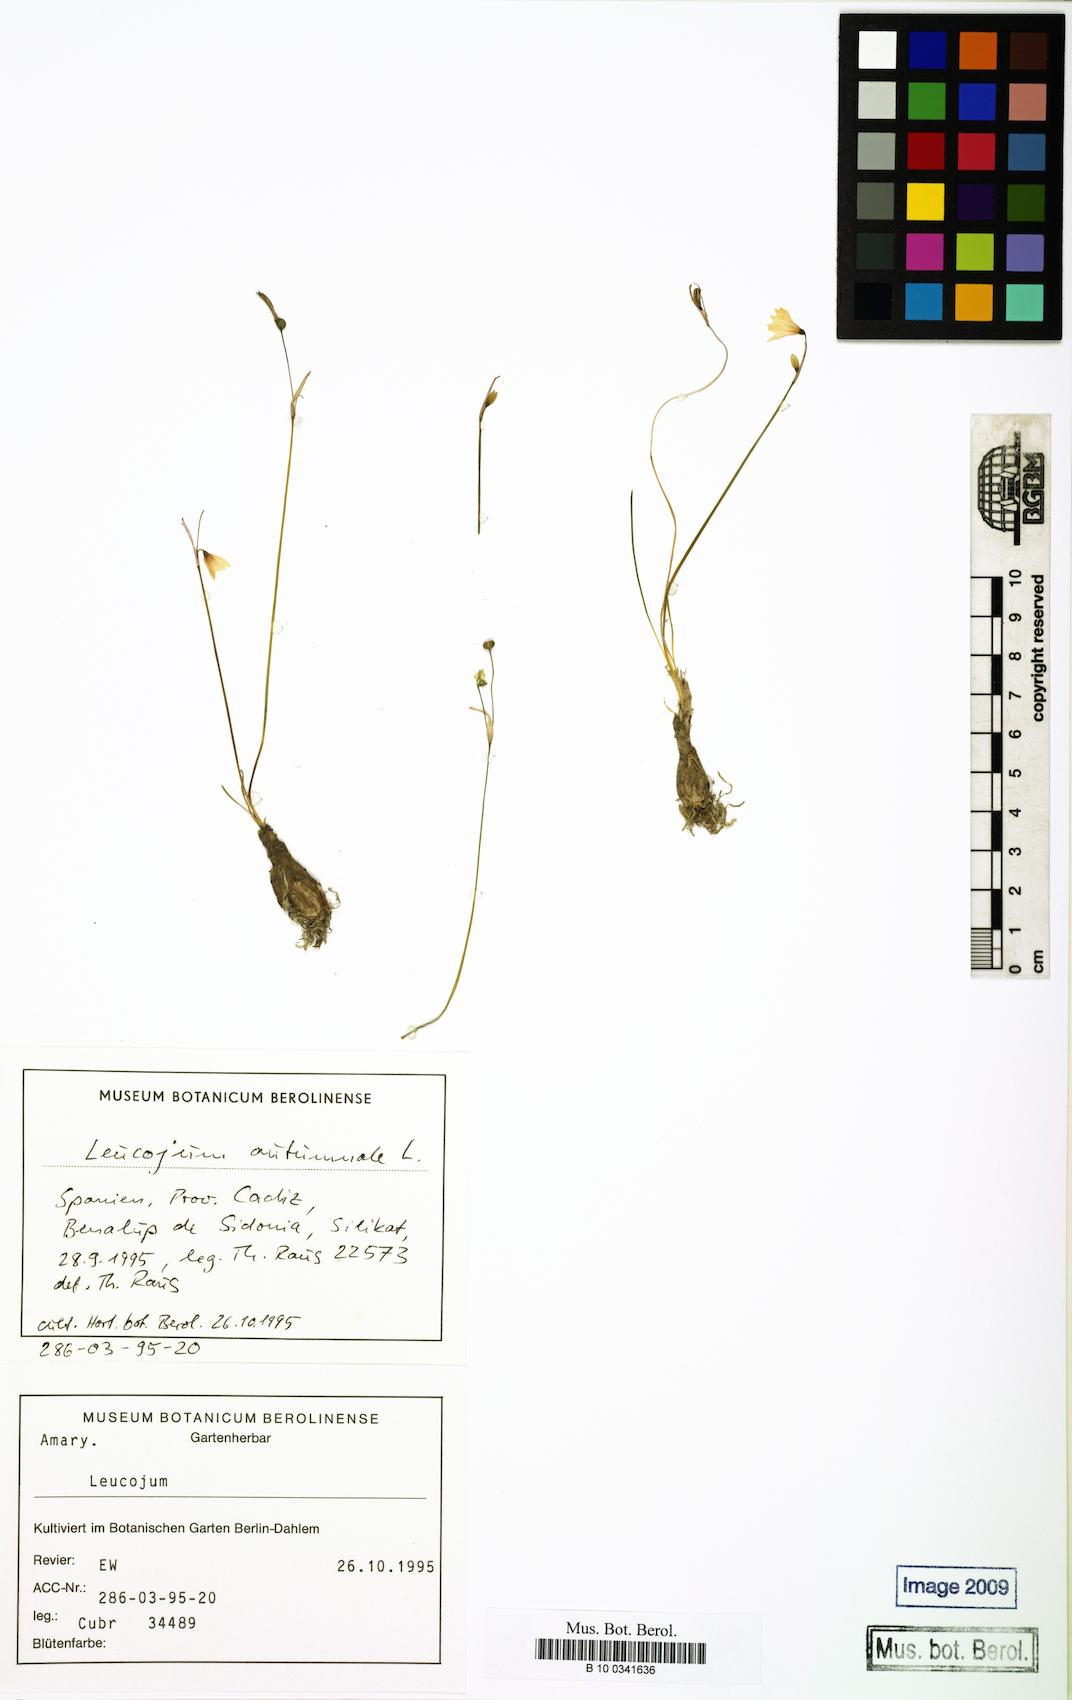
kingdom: Plantae
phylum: Tracheophyta
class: Liliopsida
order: Asparagales
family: Amaryllidaceae
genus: Acis
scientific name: Acis autumnalis
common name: Autumn snowflake
